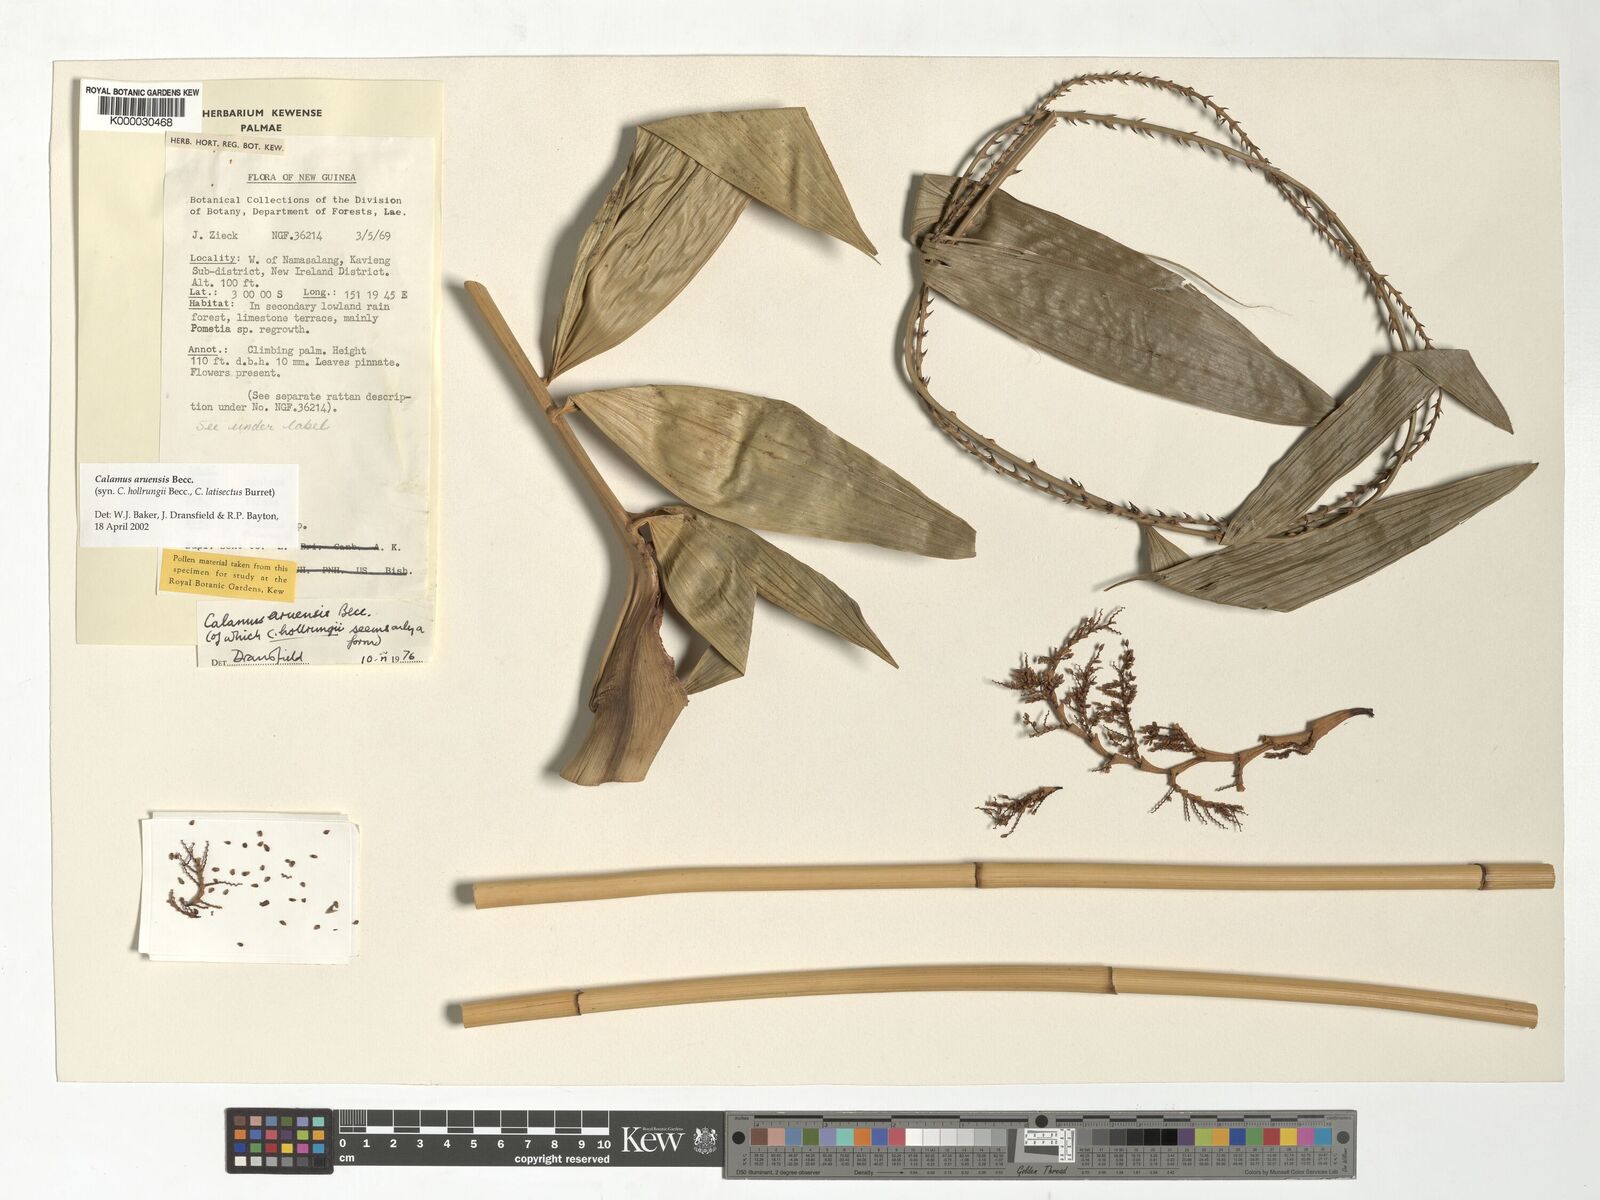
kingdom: Plantae
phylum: Tracheophyta
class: Liliopsida
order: Arecales
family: Arecaceae
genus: Calamus
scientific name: Calamus aruensis
